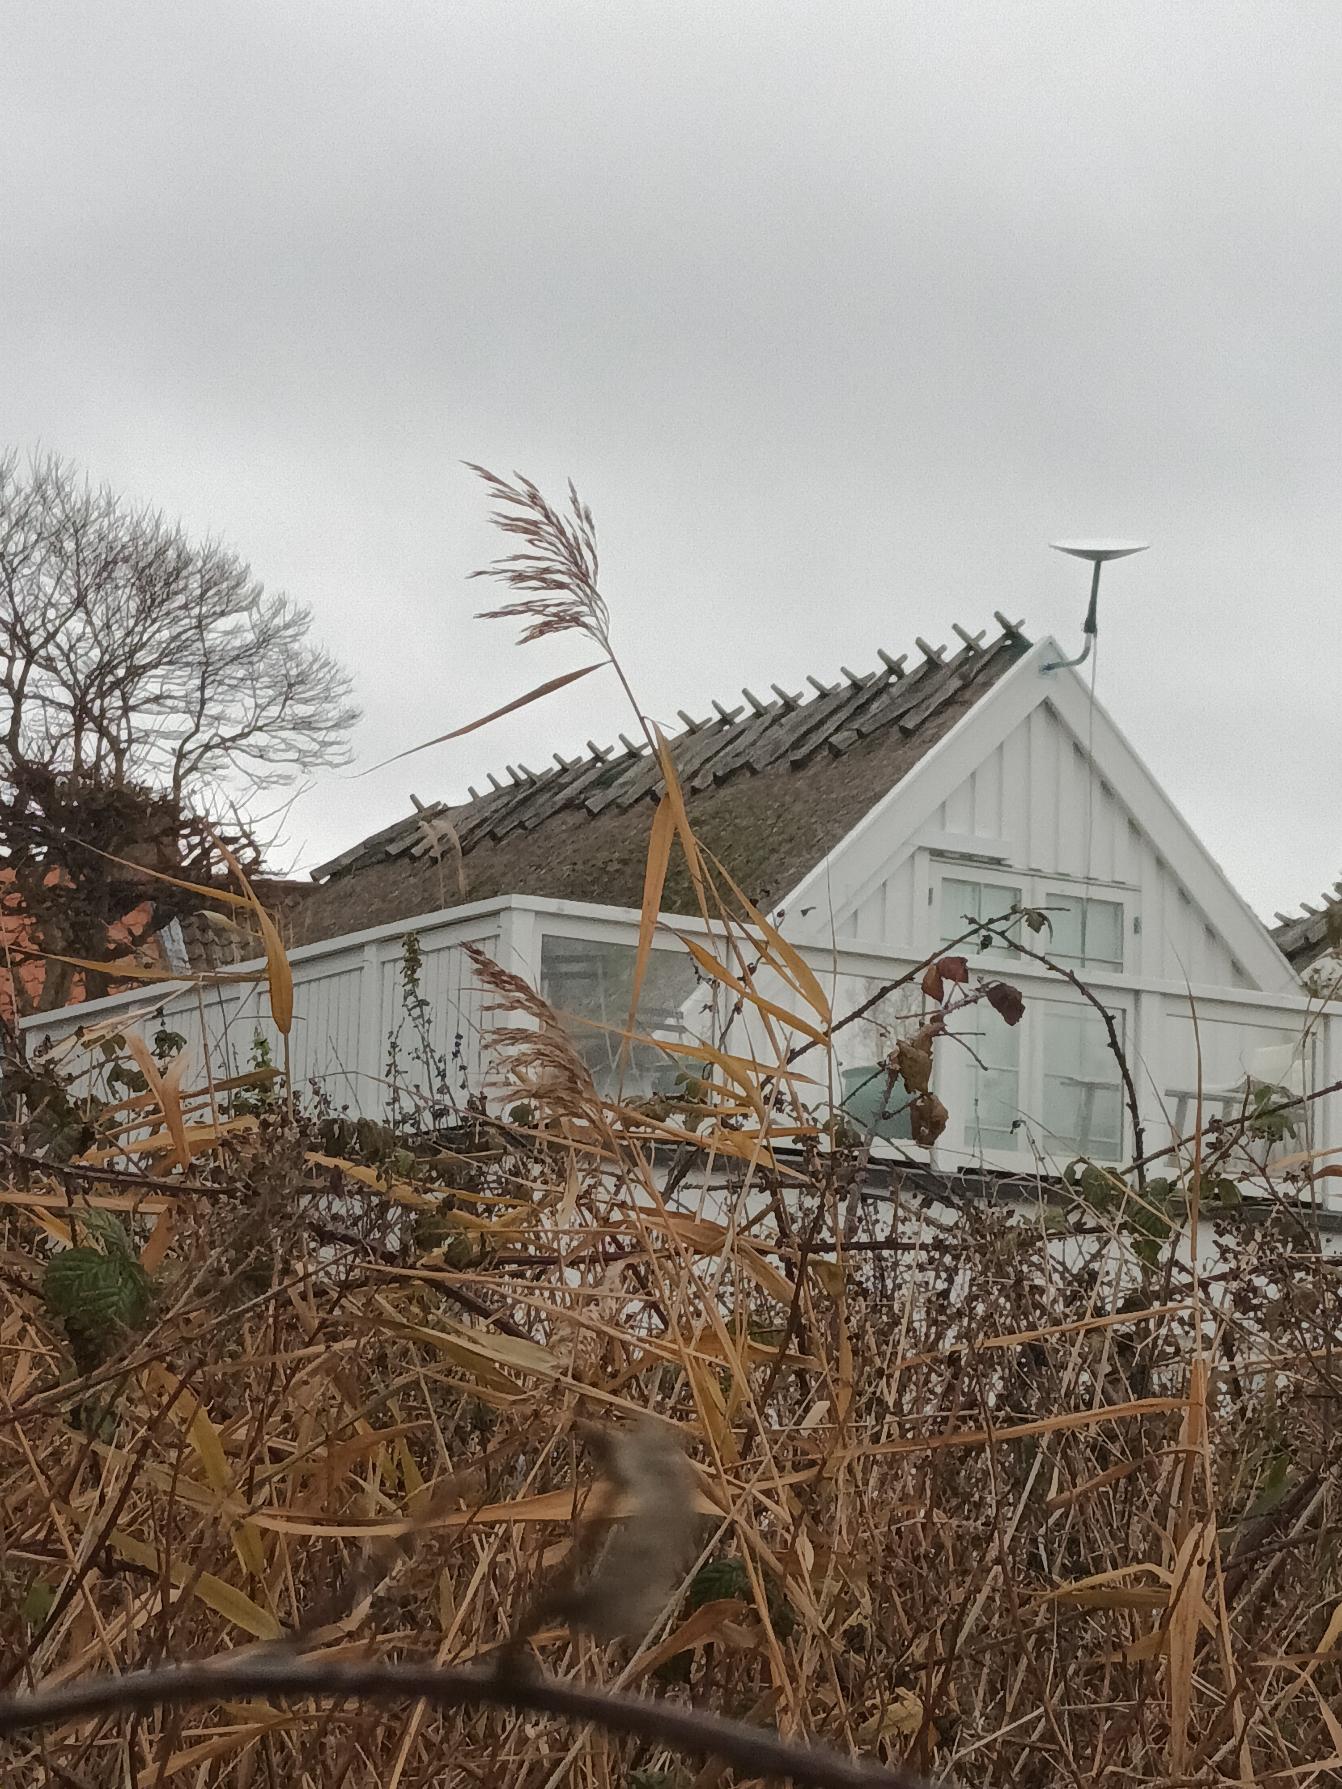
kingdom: Plantae
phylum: Tracheophyta
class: Liliopsida
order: Poales
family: Poaceae
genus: Phragmites
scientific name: Phragmites australis
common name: Tagrør
